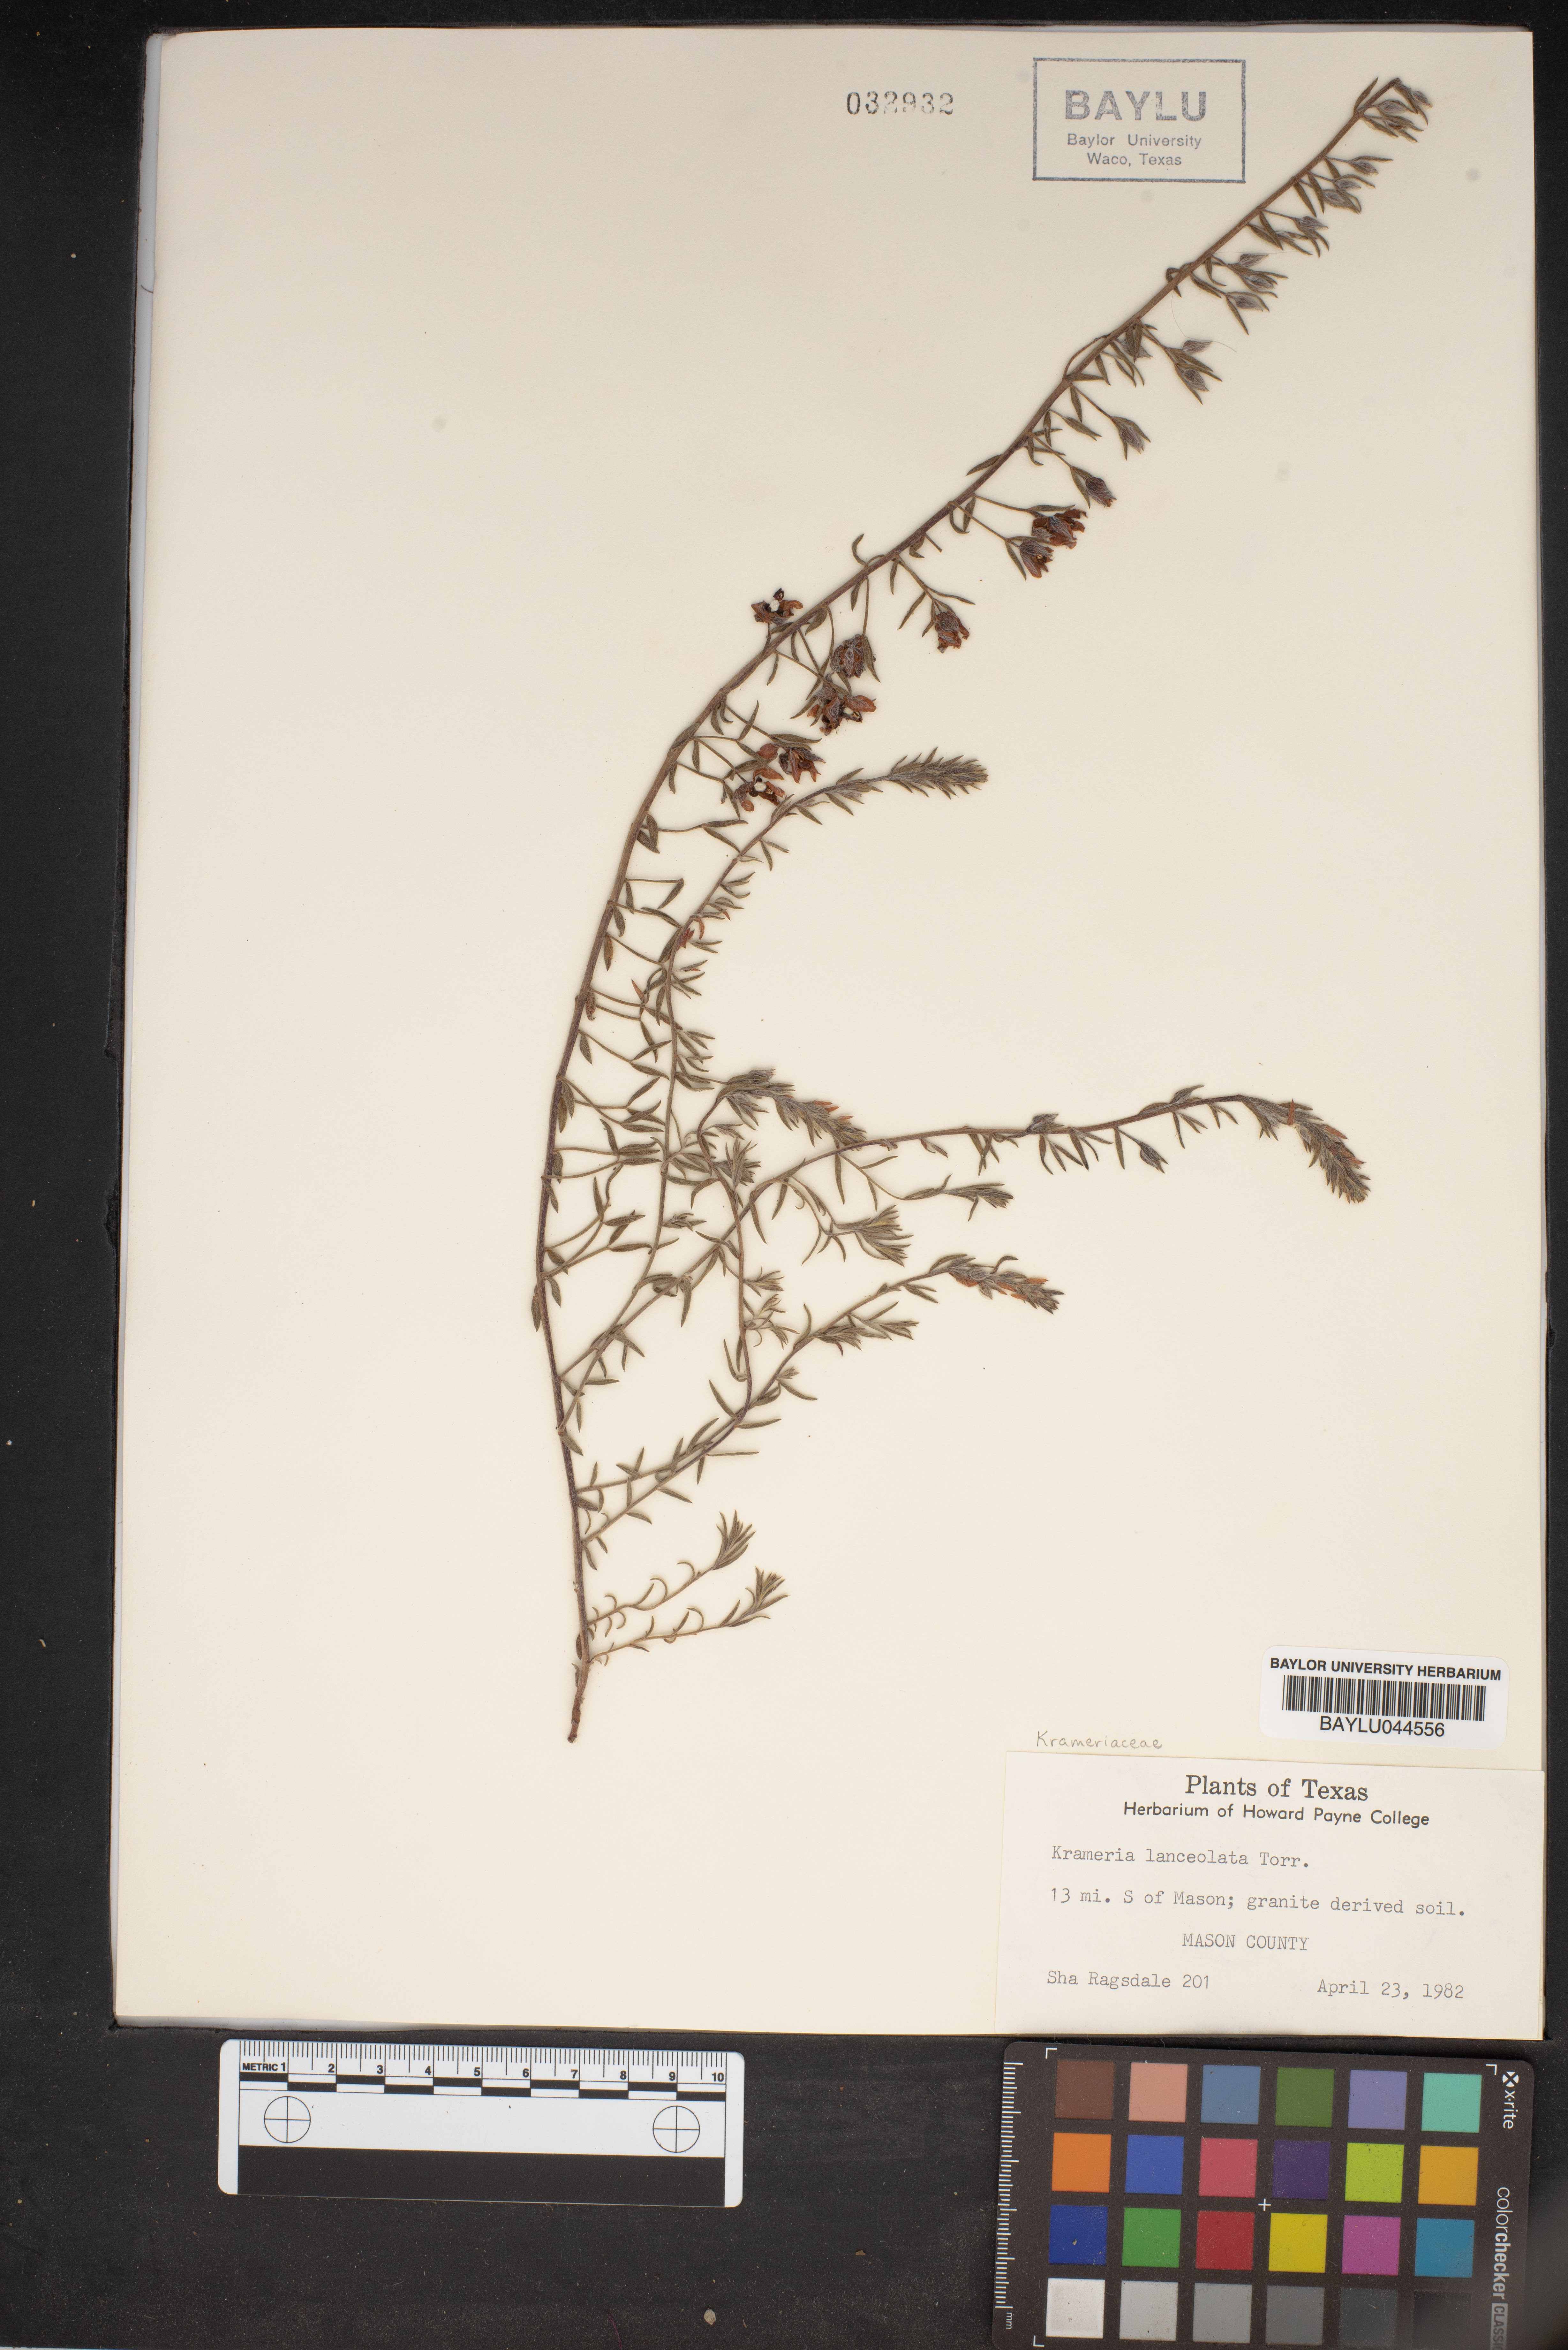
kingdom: Plantae
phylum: Tracheophyta
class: Magnoliopsida
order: Zygophyllales
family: Krameriaceae
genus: Krameria
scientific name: Krameria lanceolata
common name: Ratany
